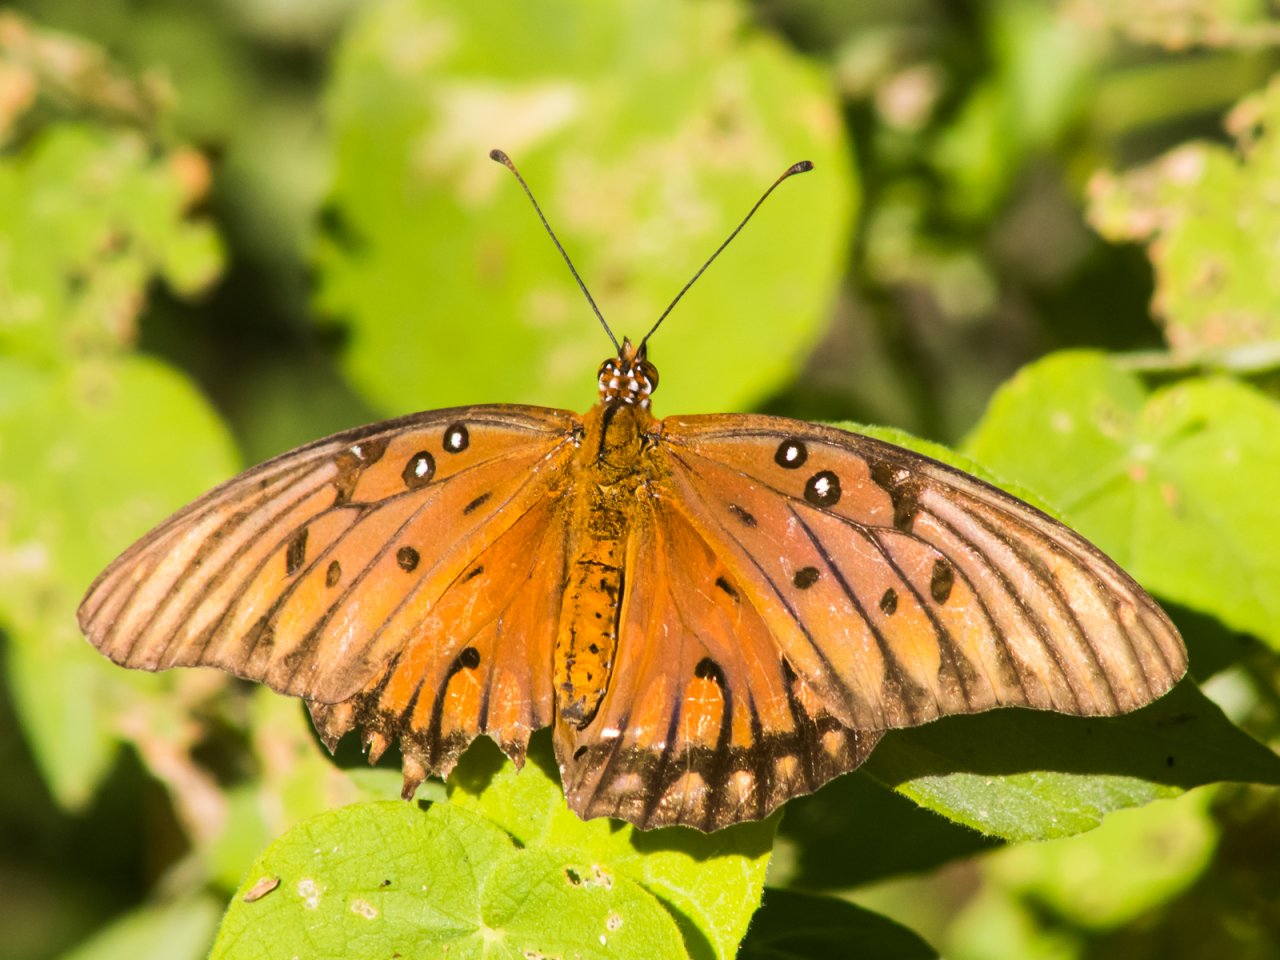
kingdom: Animalia
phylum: Arthropoda
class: Insecta
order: Lepidoptera
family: Nymphalidae
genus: Dione
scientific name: Dione vanillae
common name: Gulf Fritillary
